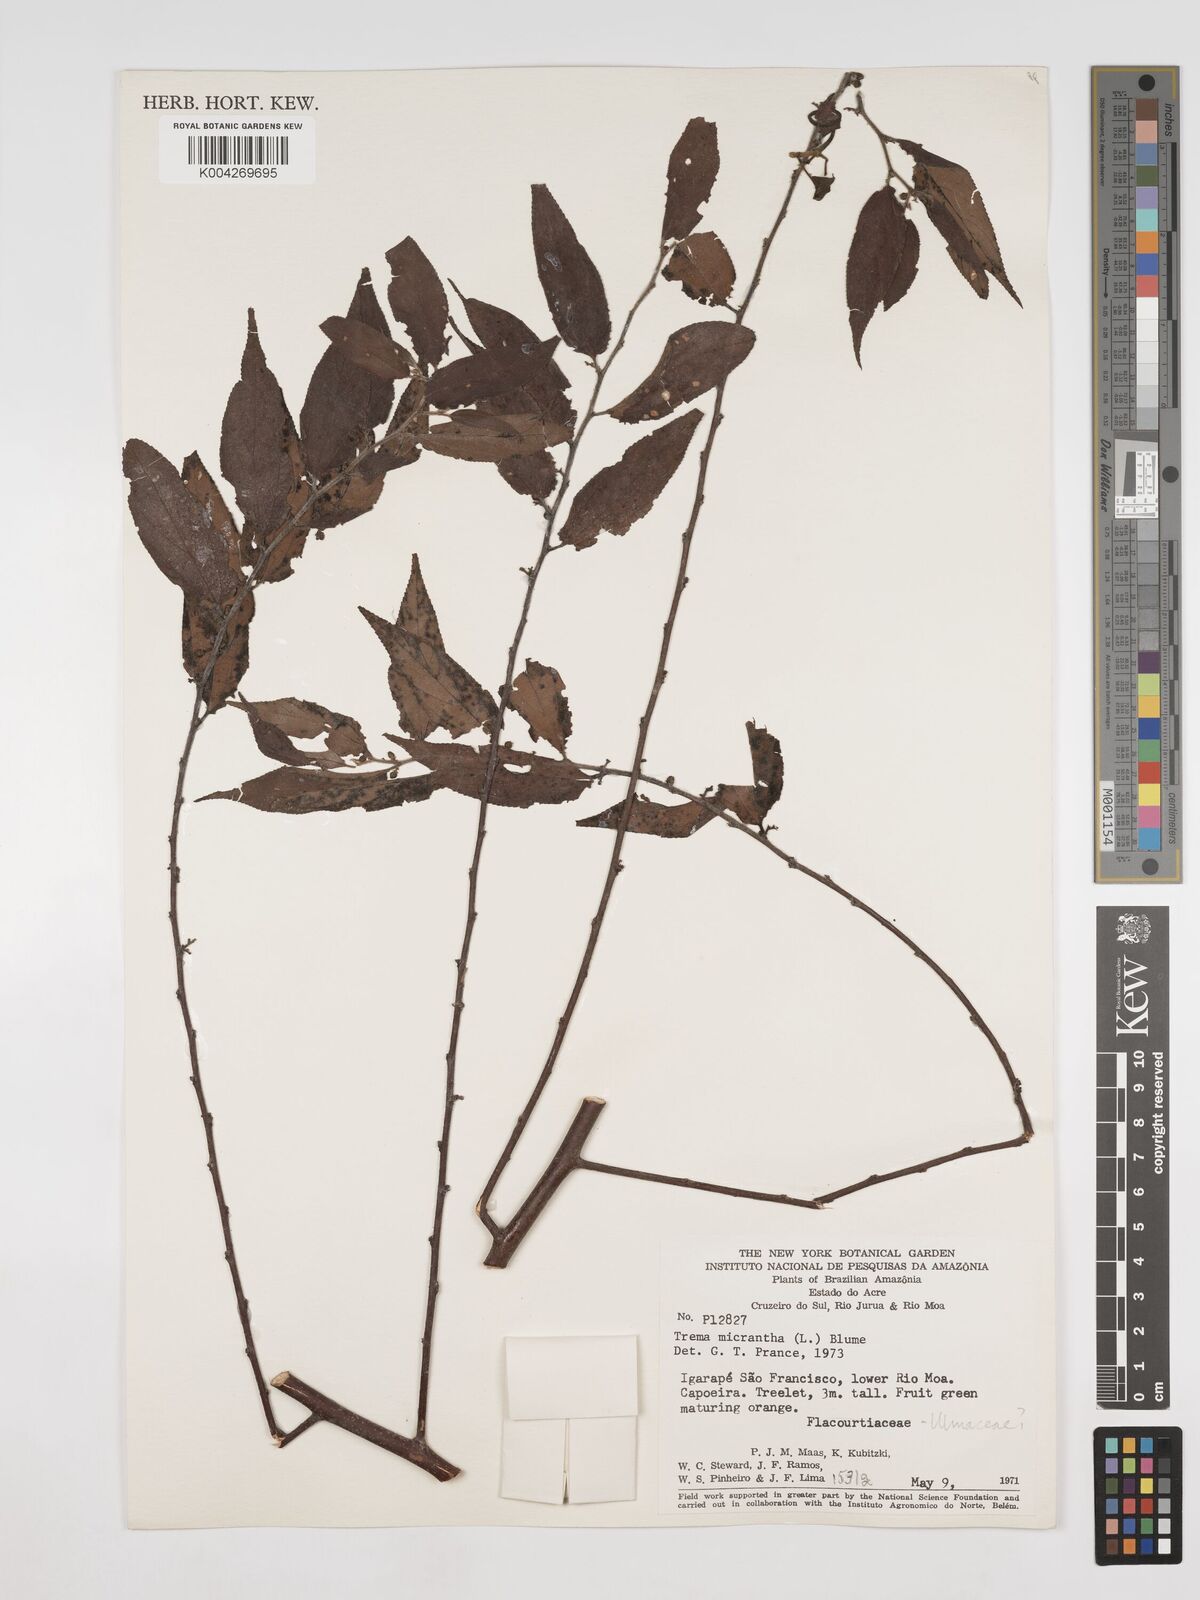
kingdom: Plantae
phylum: Tracheophyta
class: Magnoliopsida
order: Rosales
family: Cannabaceae
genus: Trema
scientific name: Trema micranthum
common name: Jamaican nettletree
